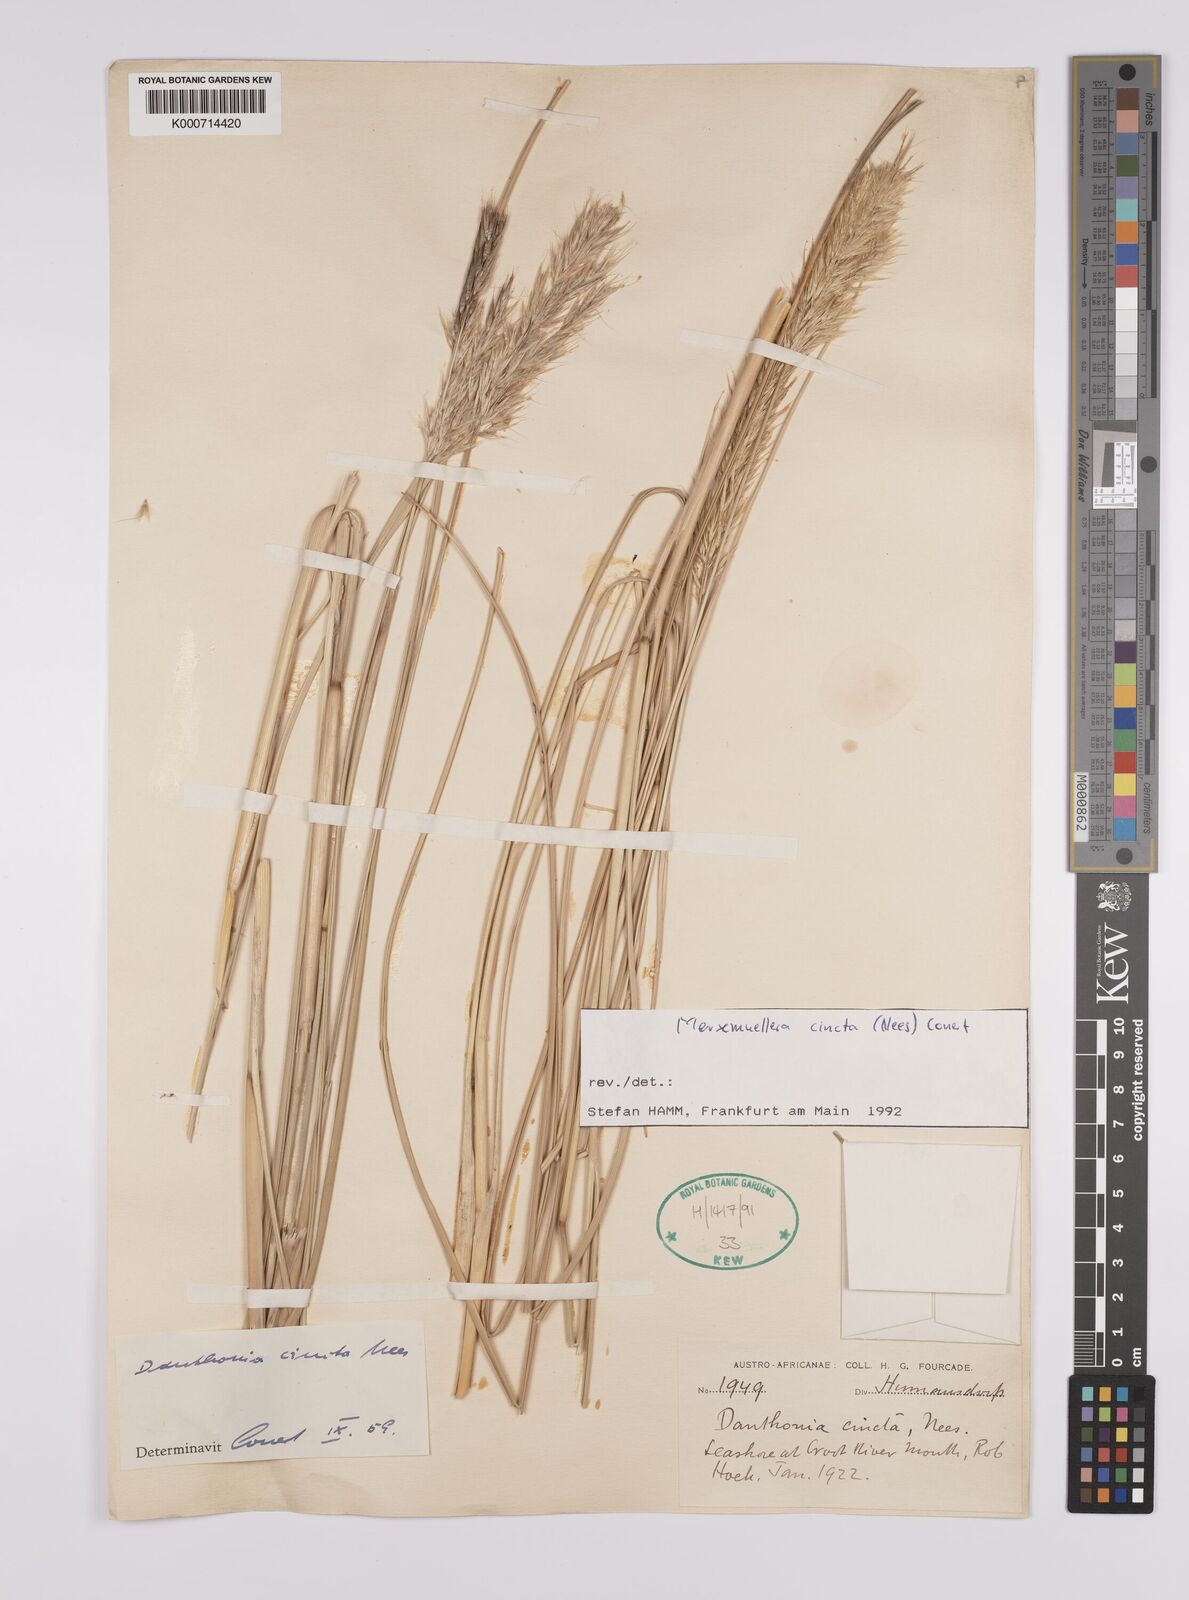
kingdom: Plantae
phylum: Tracheophyta
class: Liliopsida
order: Poales
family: Poaceae
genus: Rytidosperma
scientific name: Rytidosperma
